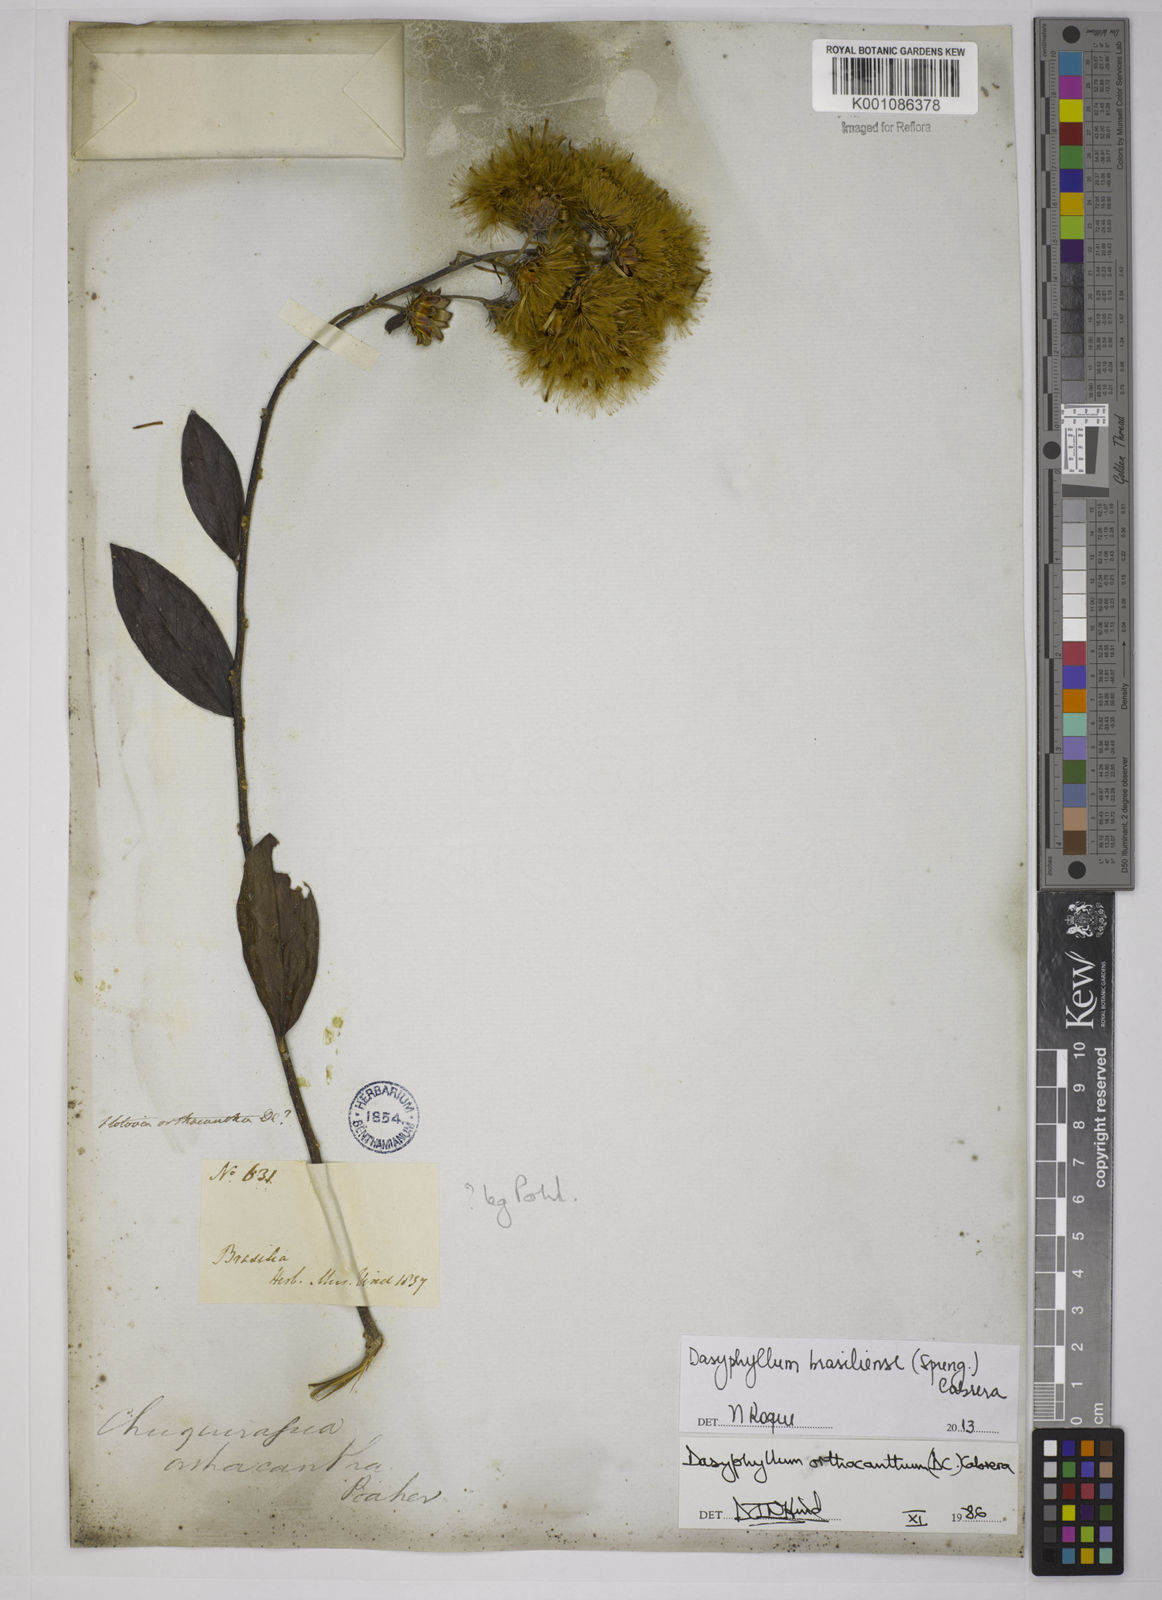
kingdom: Plantae
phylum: Tracheophyta
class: Magnoliopsida
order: Asterales
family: Asteraceae
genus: Dasyphyllum
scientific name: Dasyphyllum brasiliense
